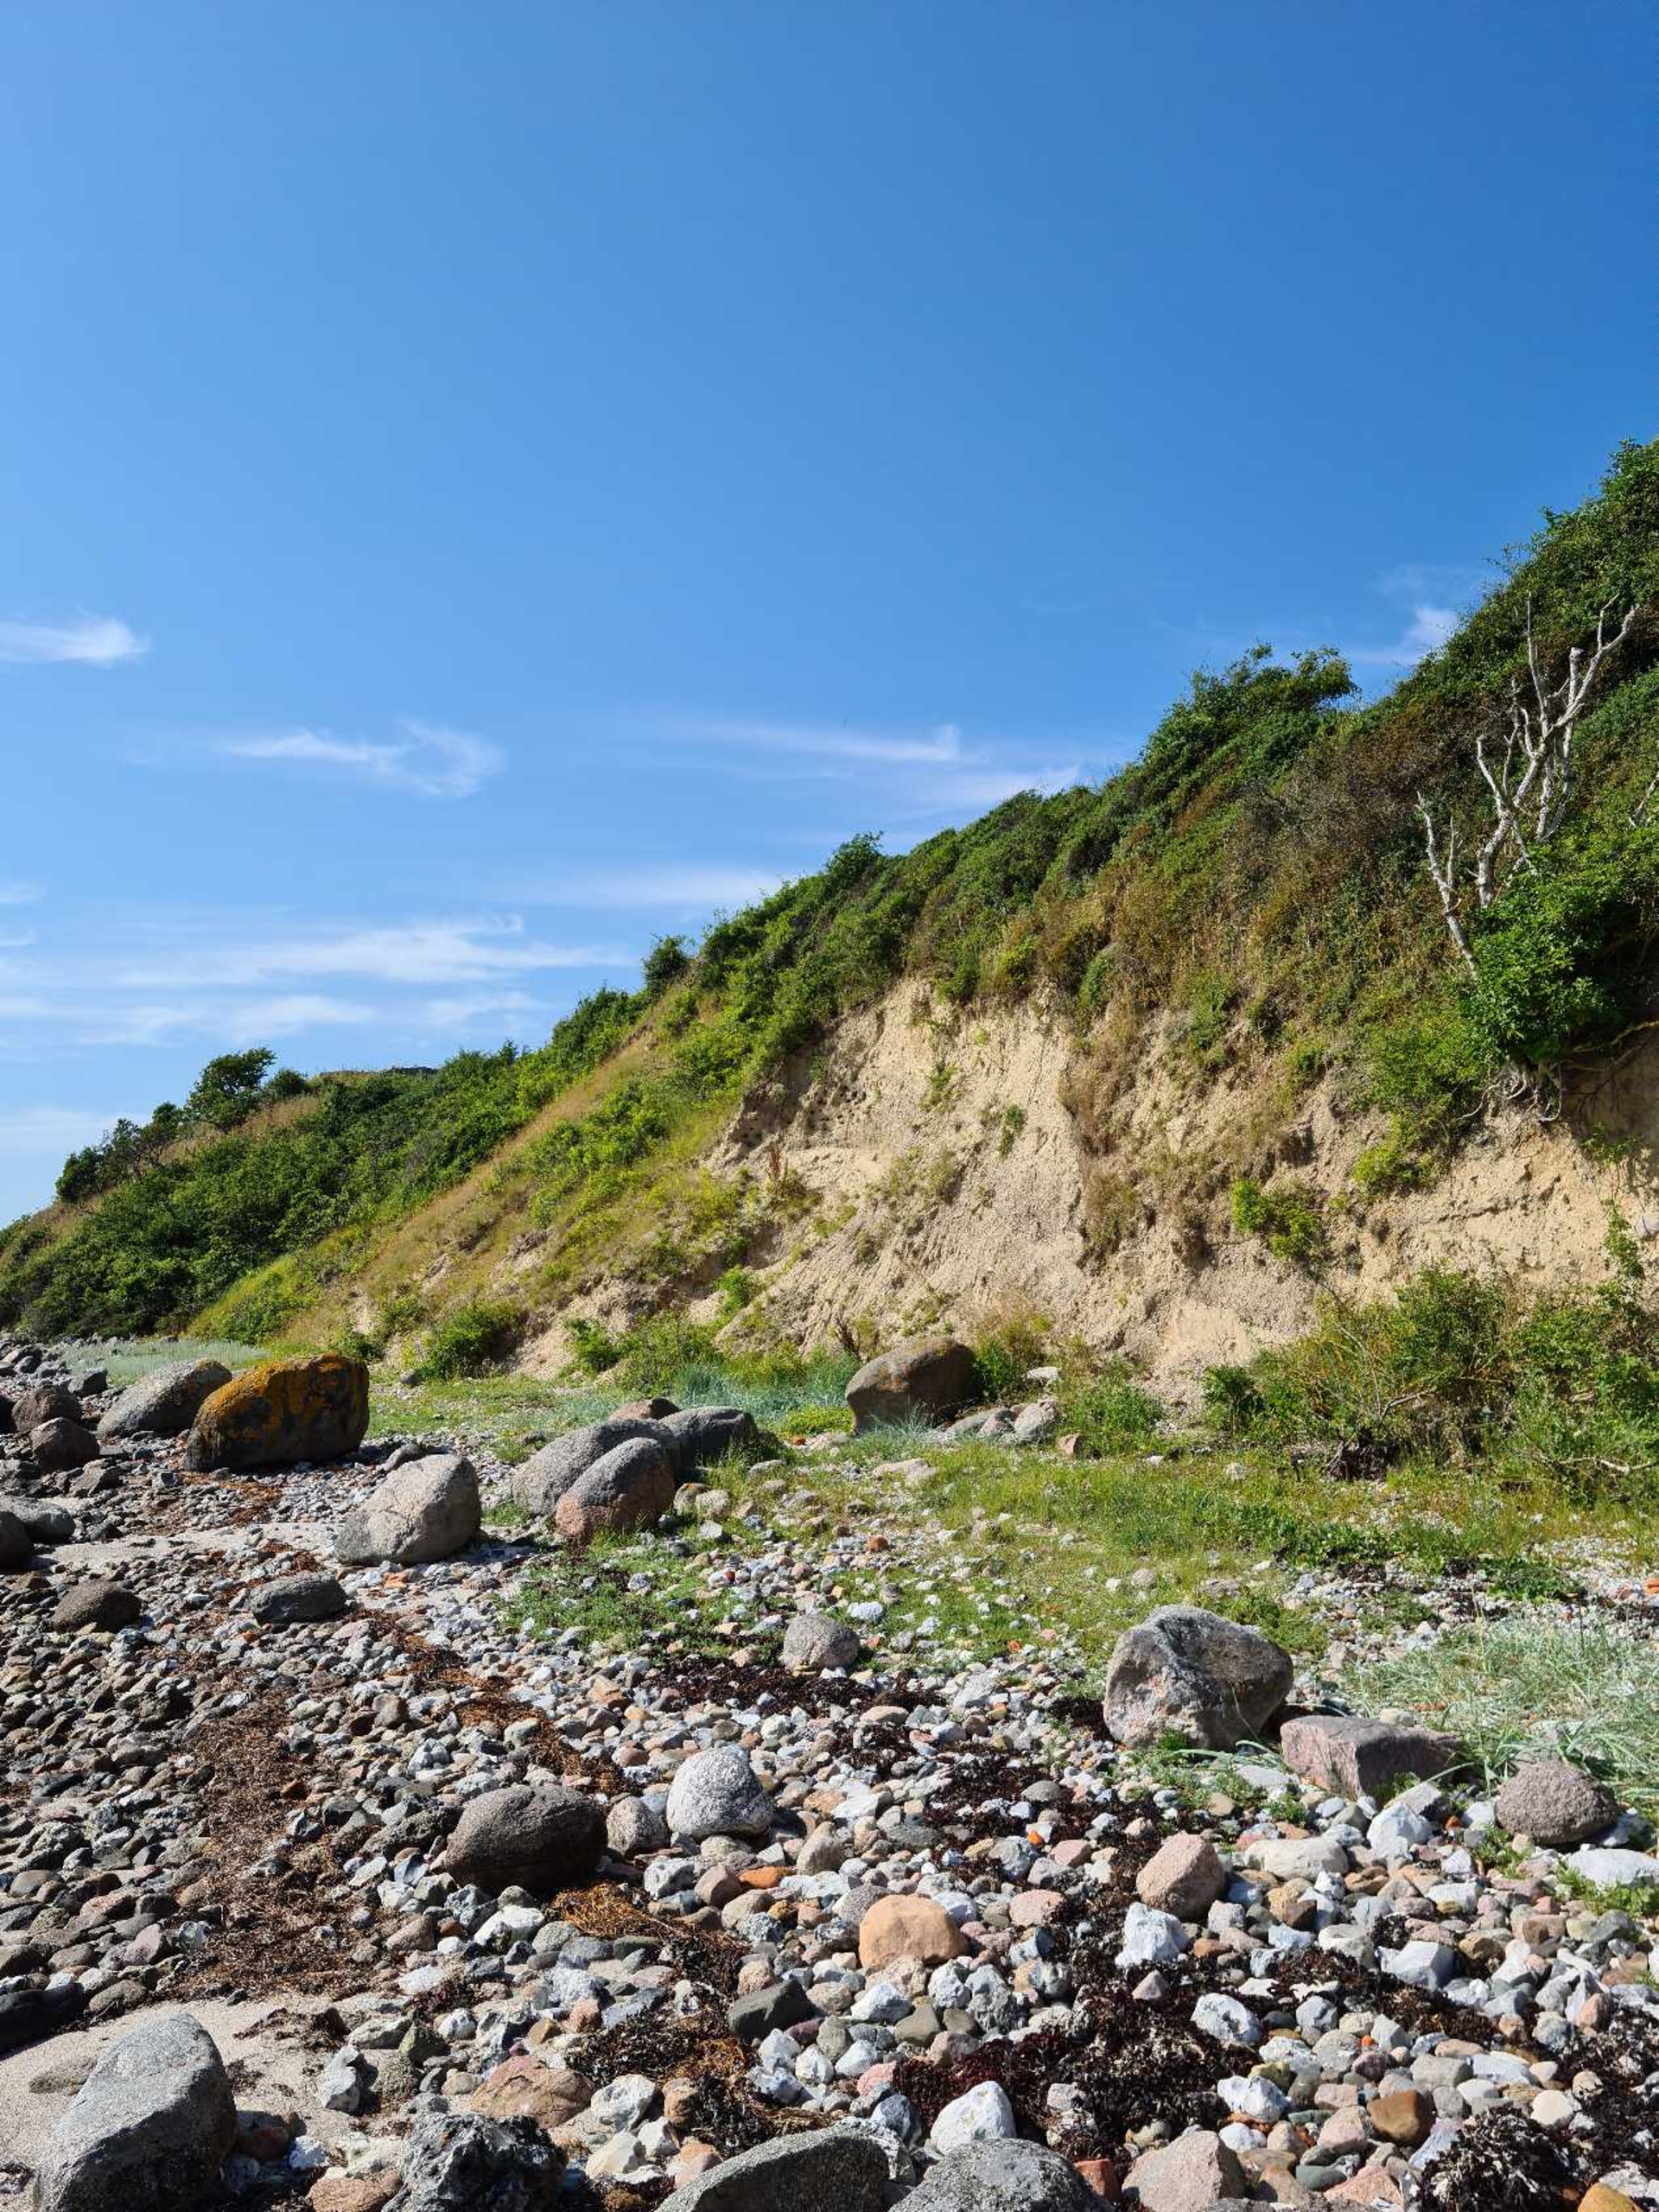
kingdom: Animalia
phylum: Chordata
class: Aves
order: Passeriformes
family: Hirundinidae
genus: Riparia
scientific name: Riparia riparia
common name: Digesvale
